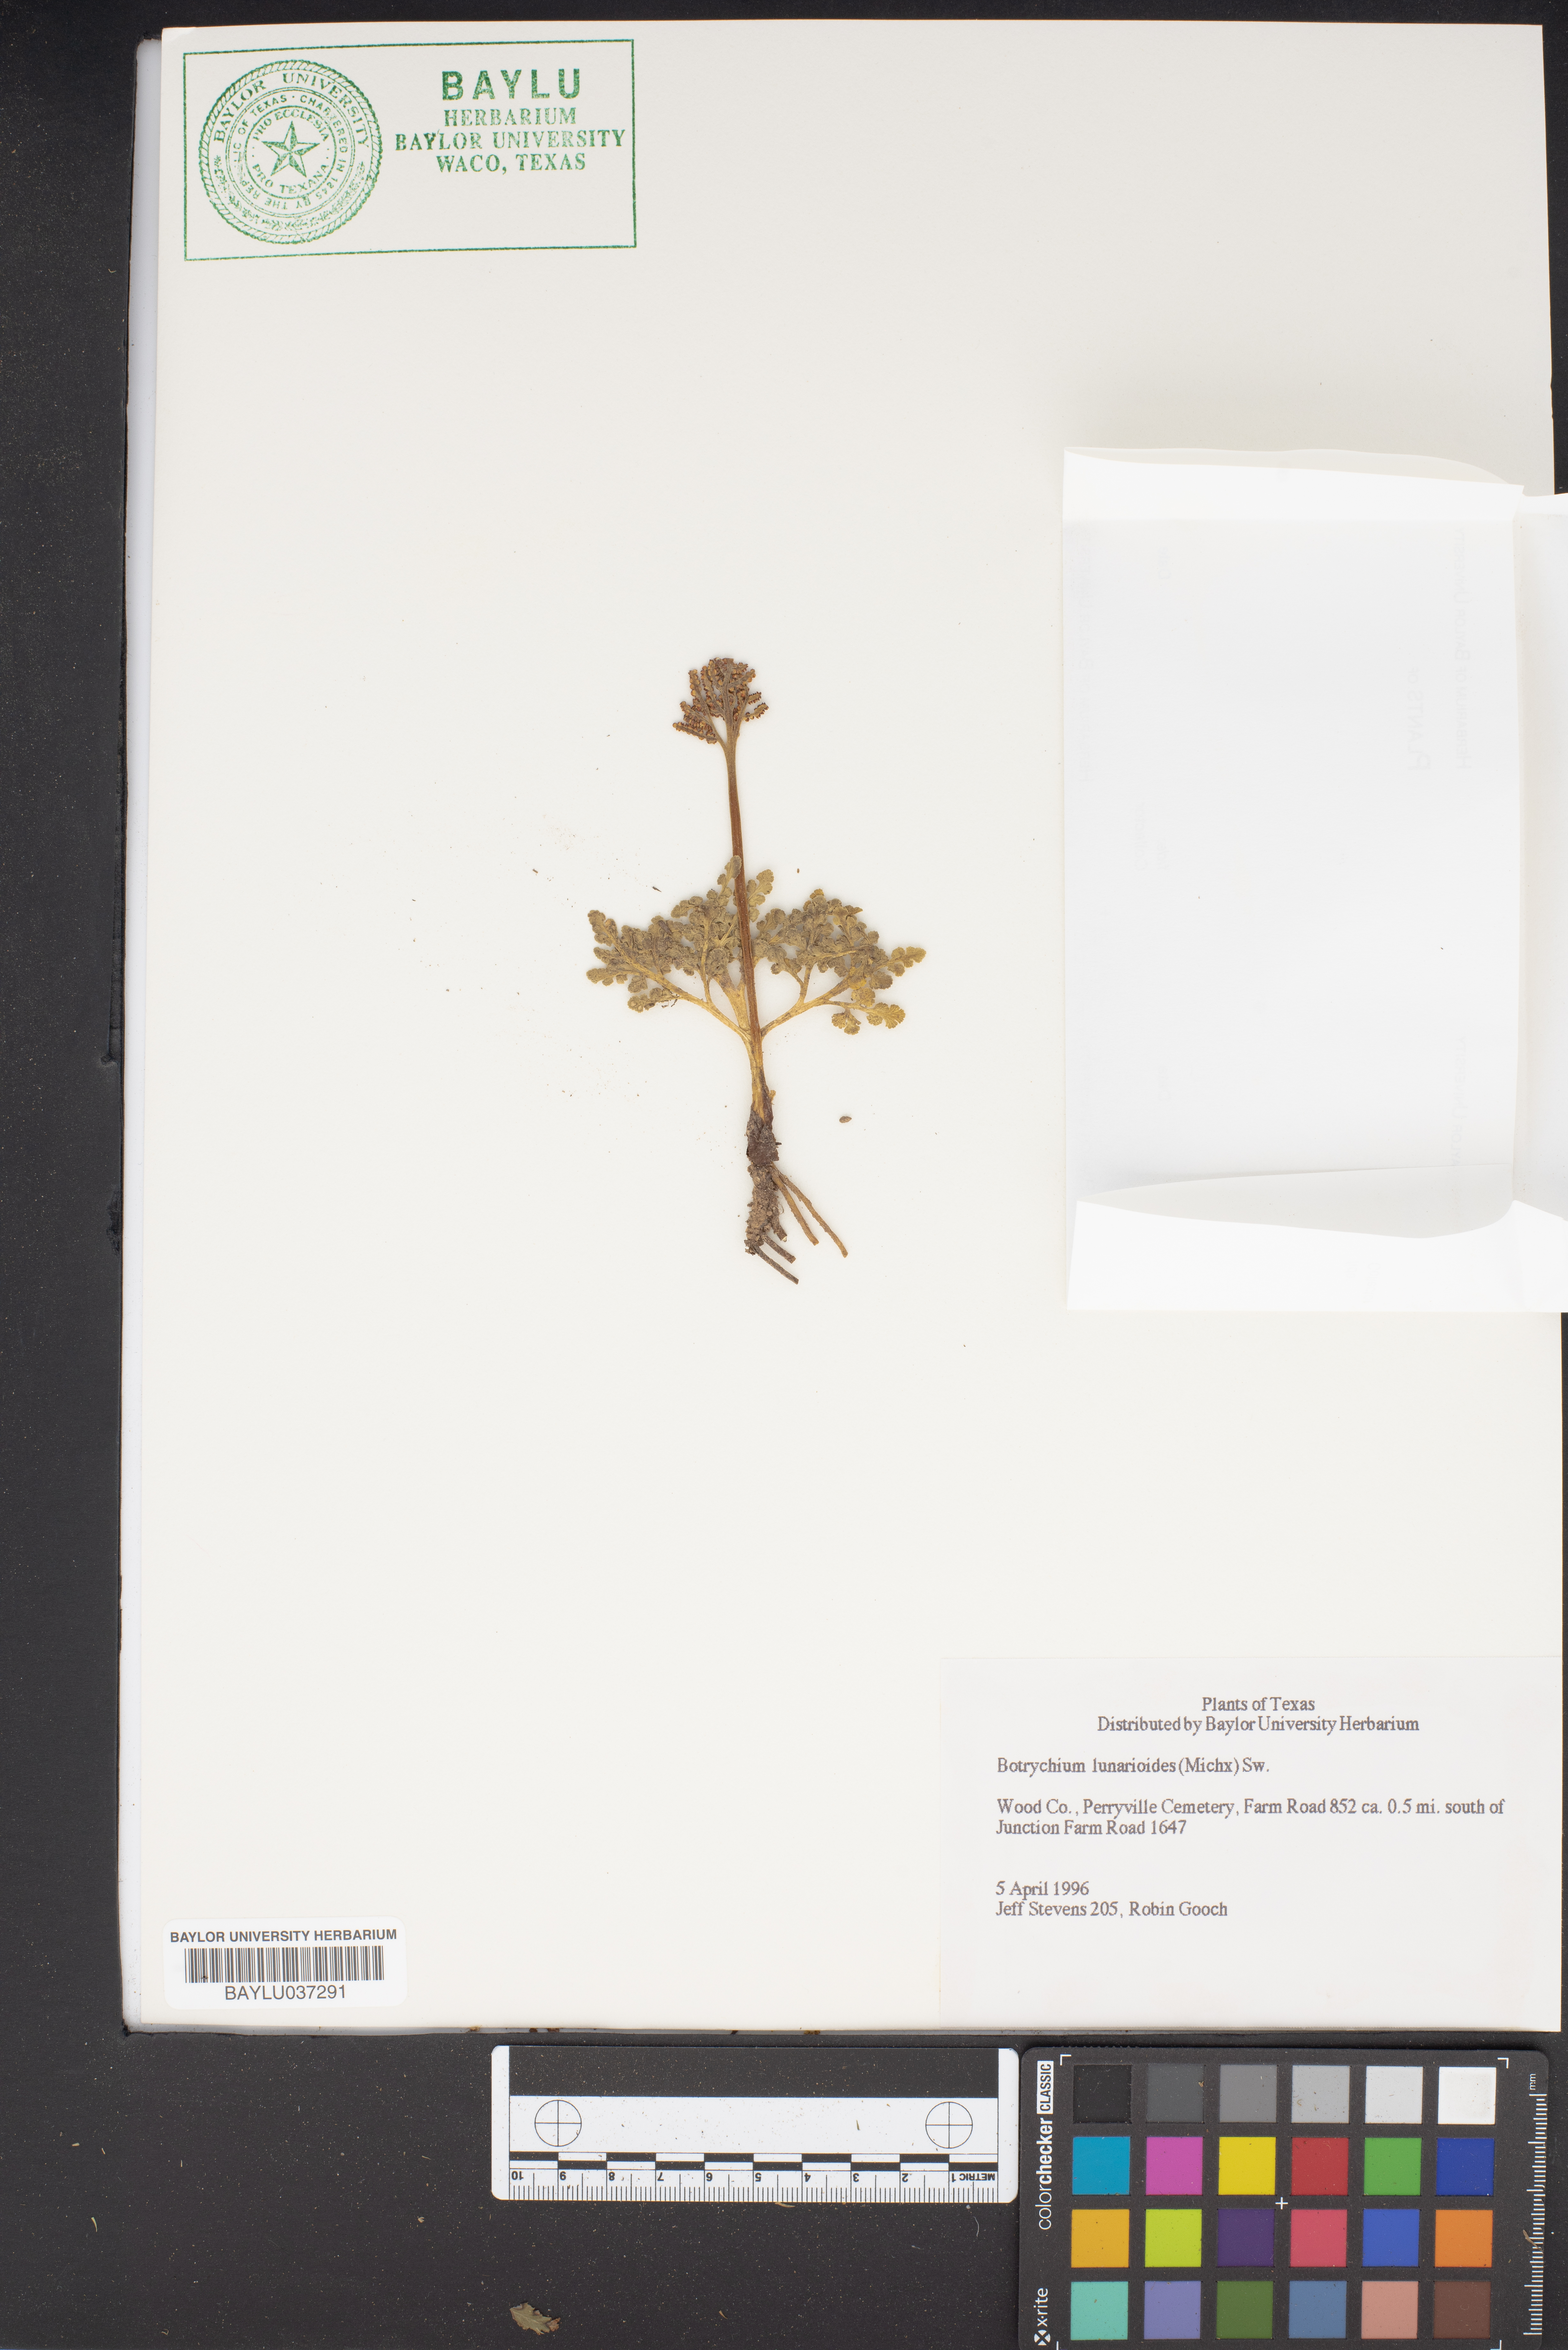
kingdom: Plantae
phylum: Tracheophyta
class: Polypodiopsida
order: Ophioglossales
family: Ophioglossaceae
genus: Sceptridium
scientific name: Sceptridium lunarioides
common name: Prostrate grapefern
